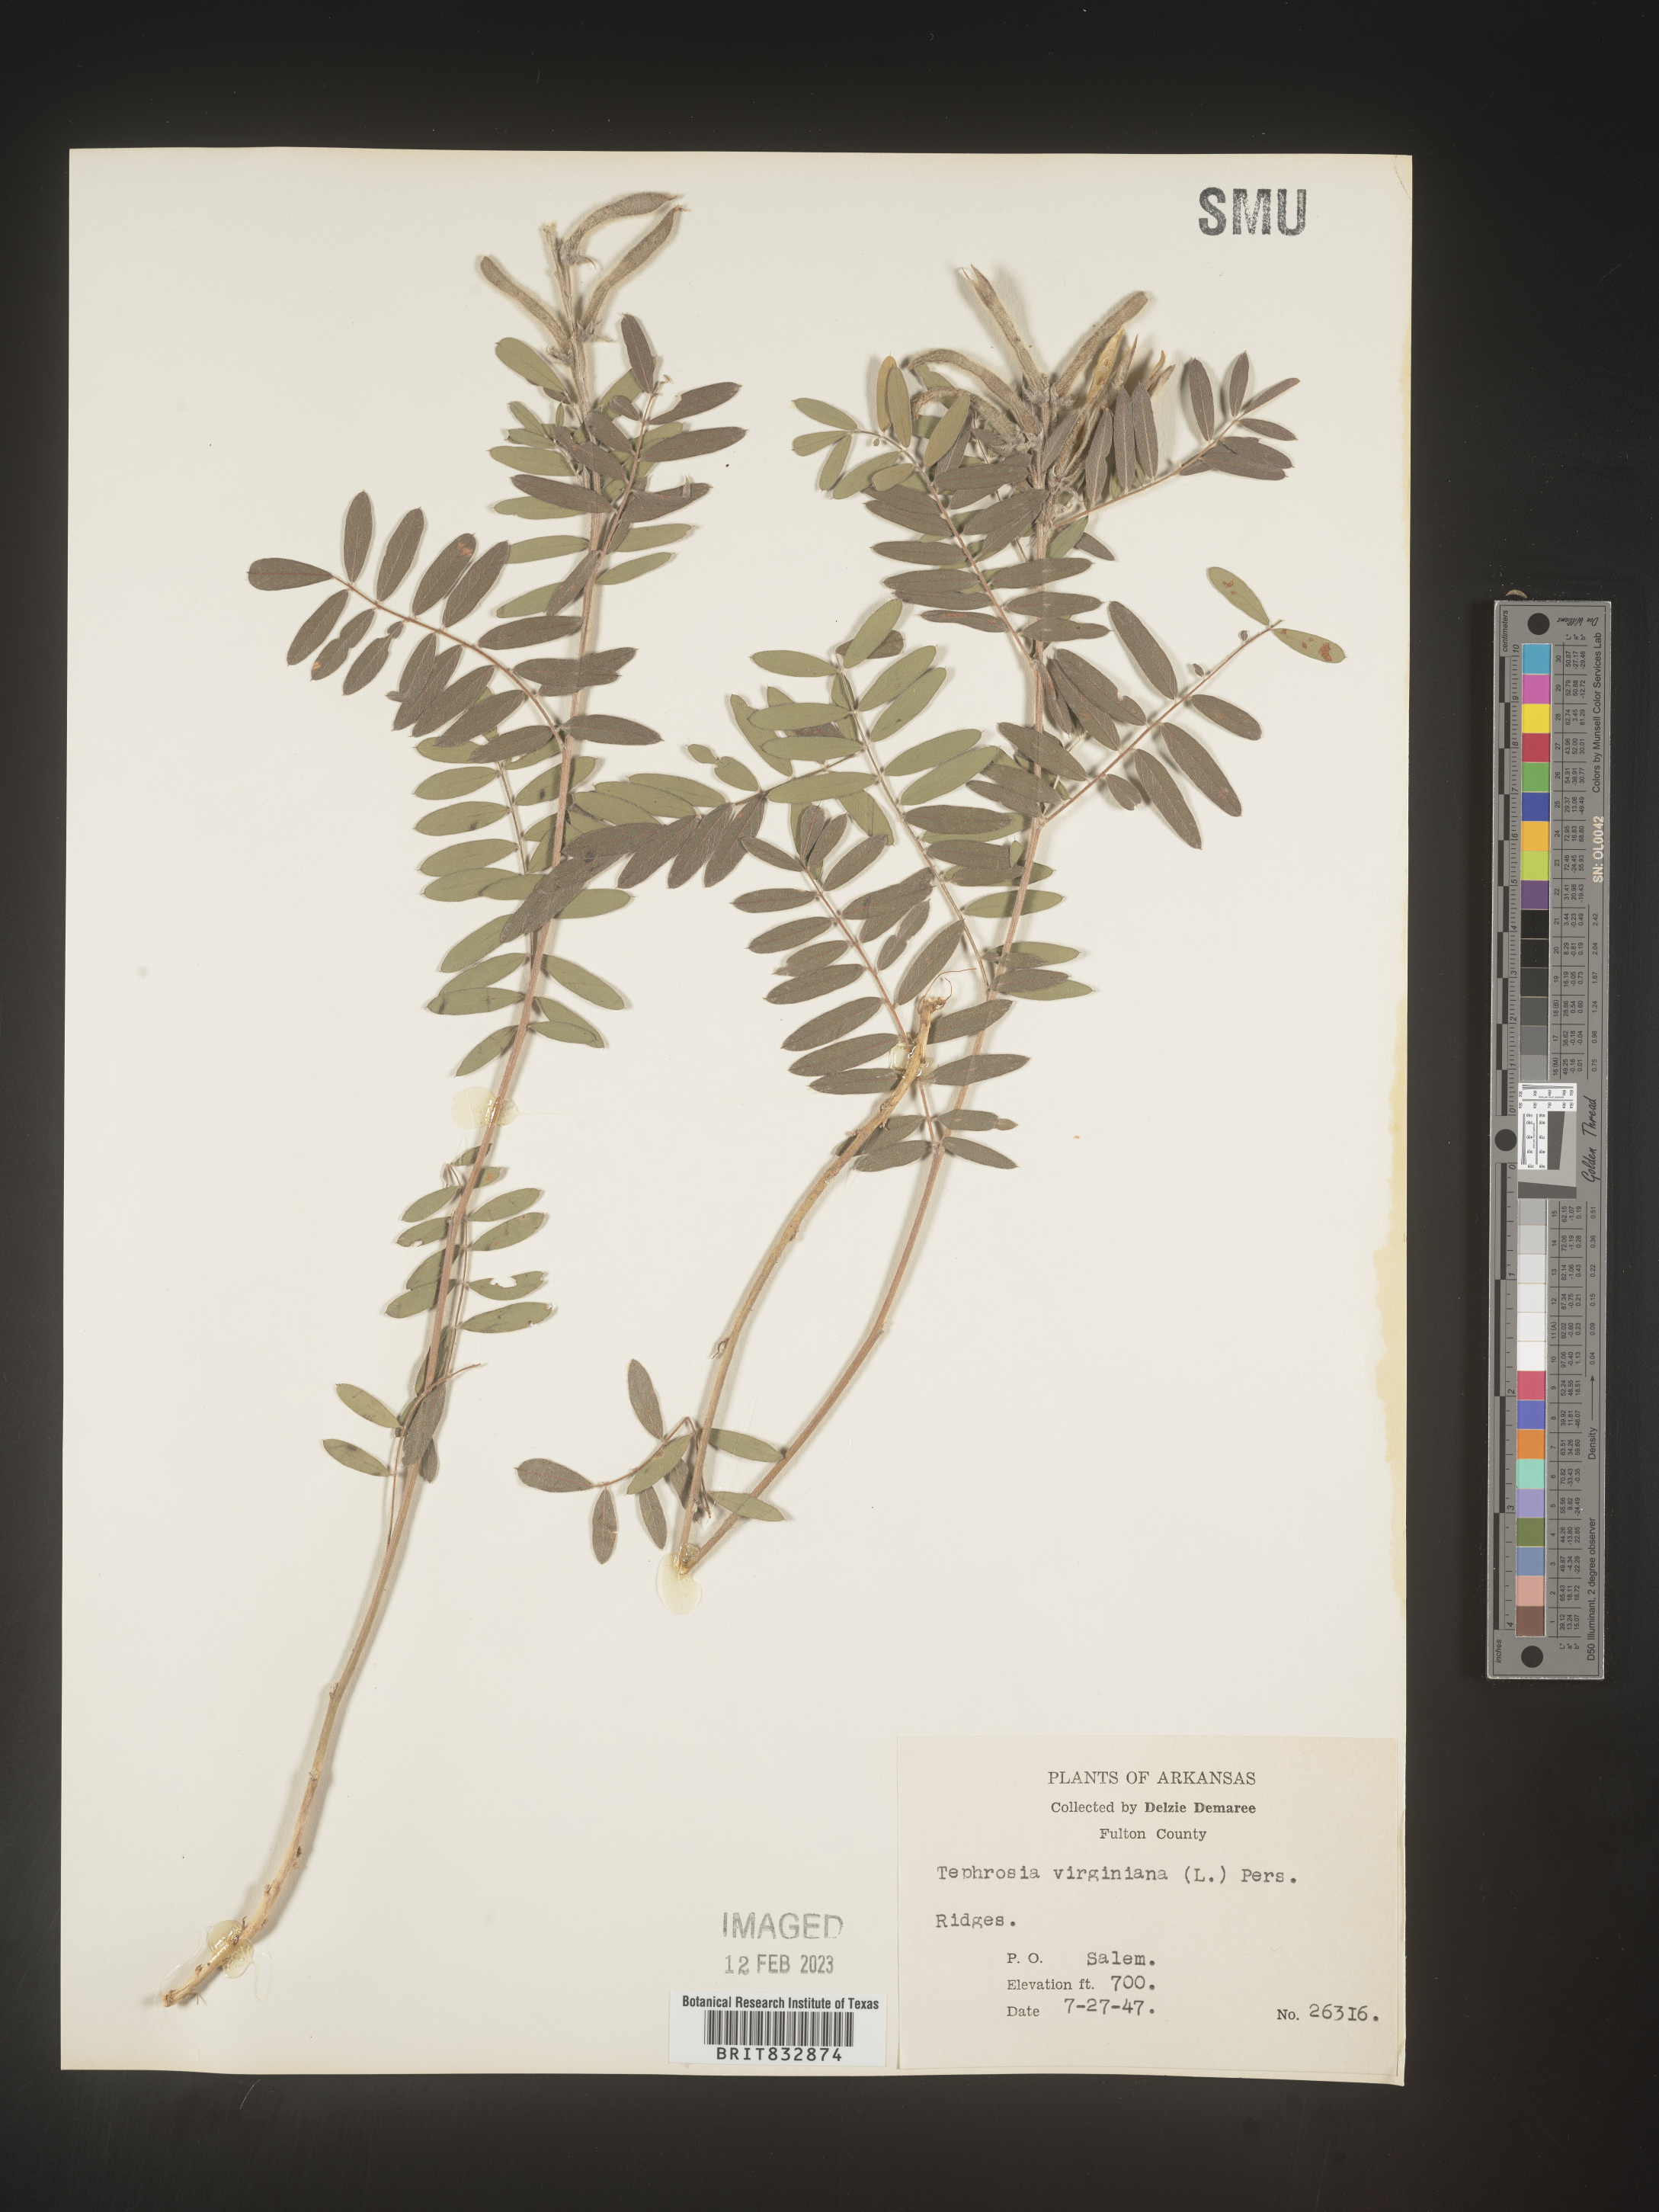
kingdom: Plantae
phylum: Tracheophyta
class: Magnoliopsida
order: Fabales
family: Fabaceae
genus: Tephrosia
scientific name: Tephrosia virginiana
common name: Rabbit-pea
